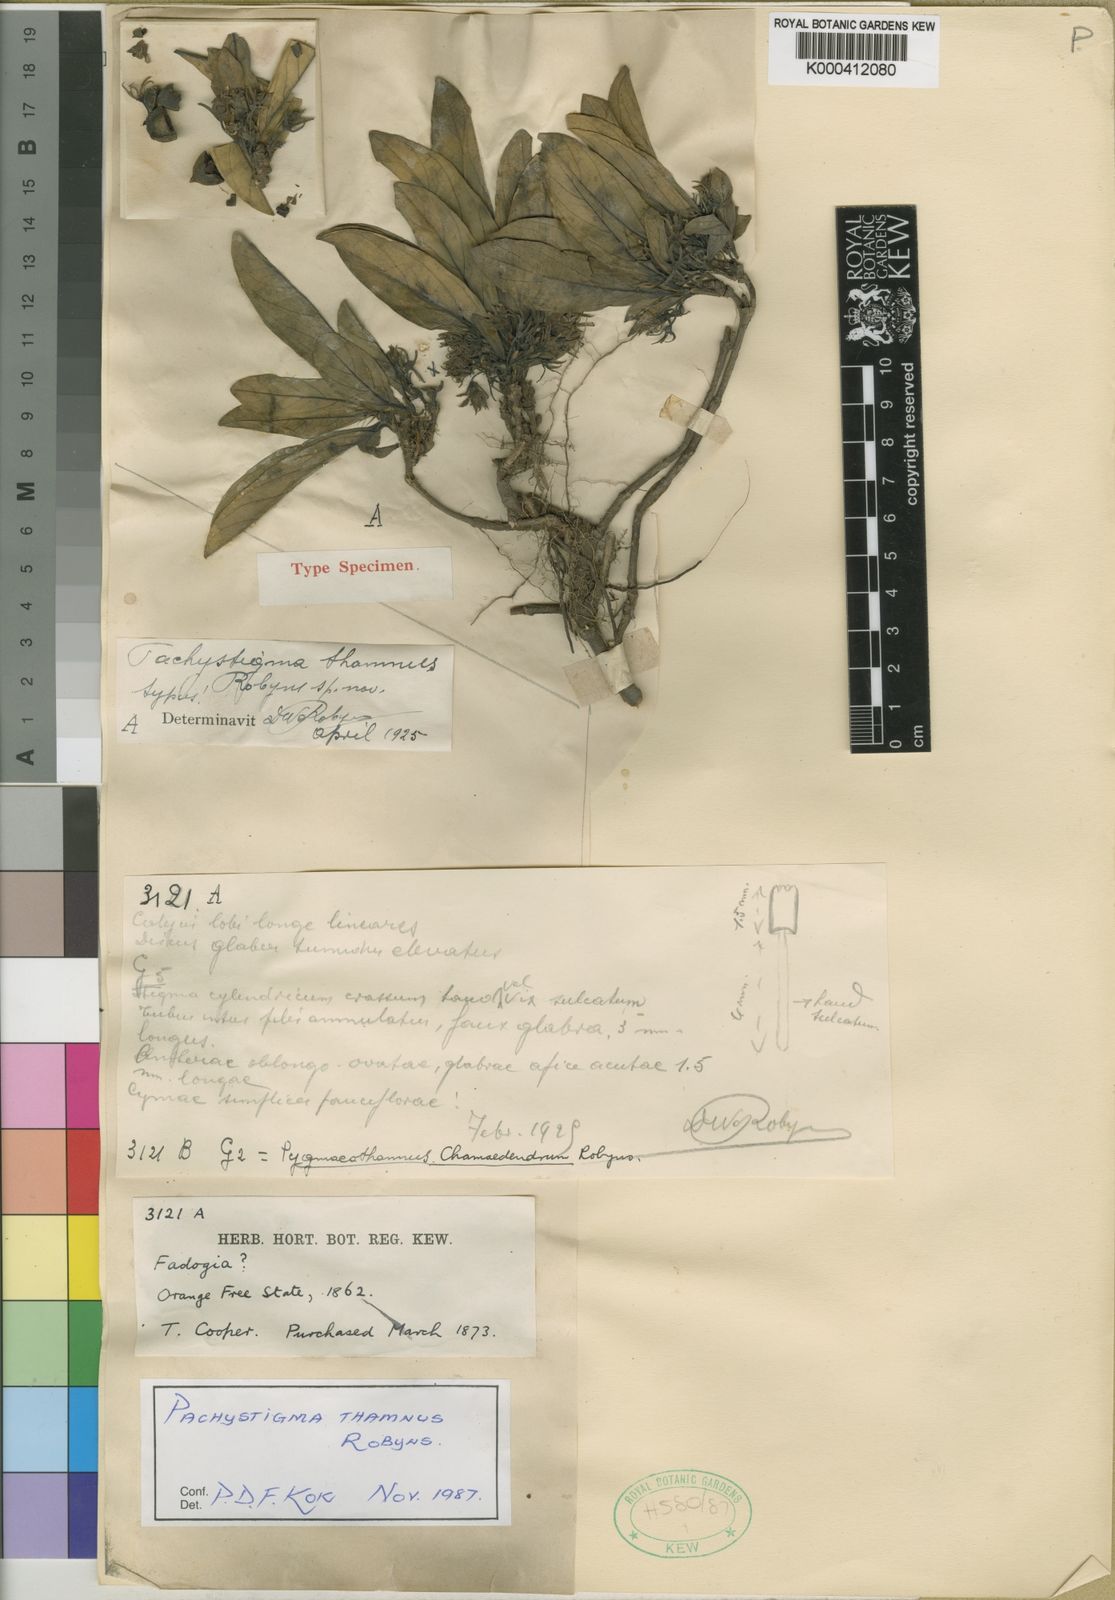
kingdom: Plantae
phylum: Tracheophyta
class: Magnoliopsida
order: Gentianales
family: Rubiaceae
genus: Vangueria
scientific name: Vangueria thamnus
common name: Smooth fousiektebossie
